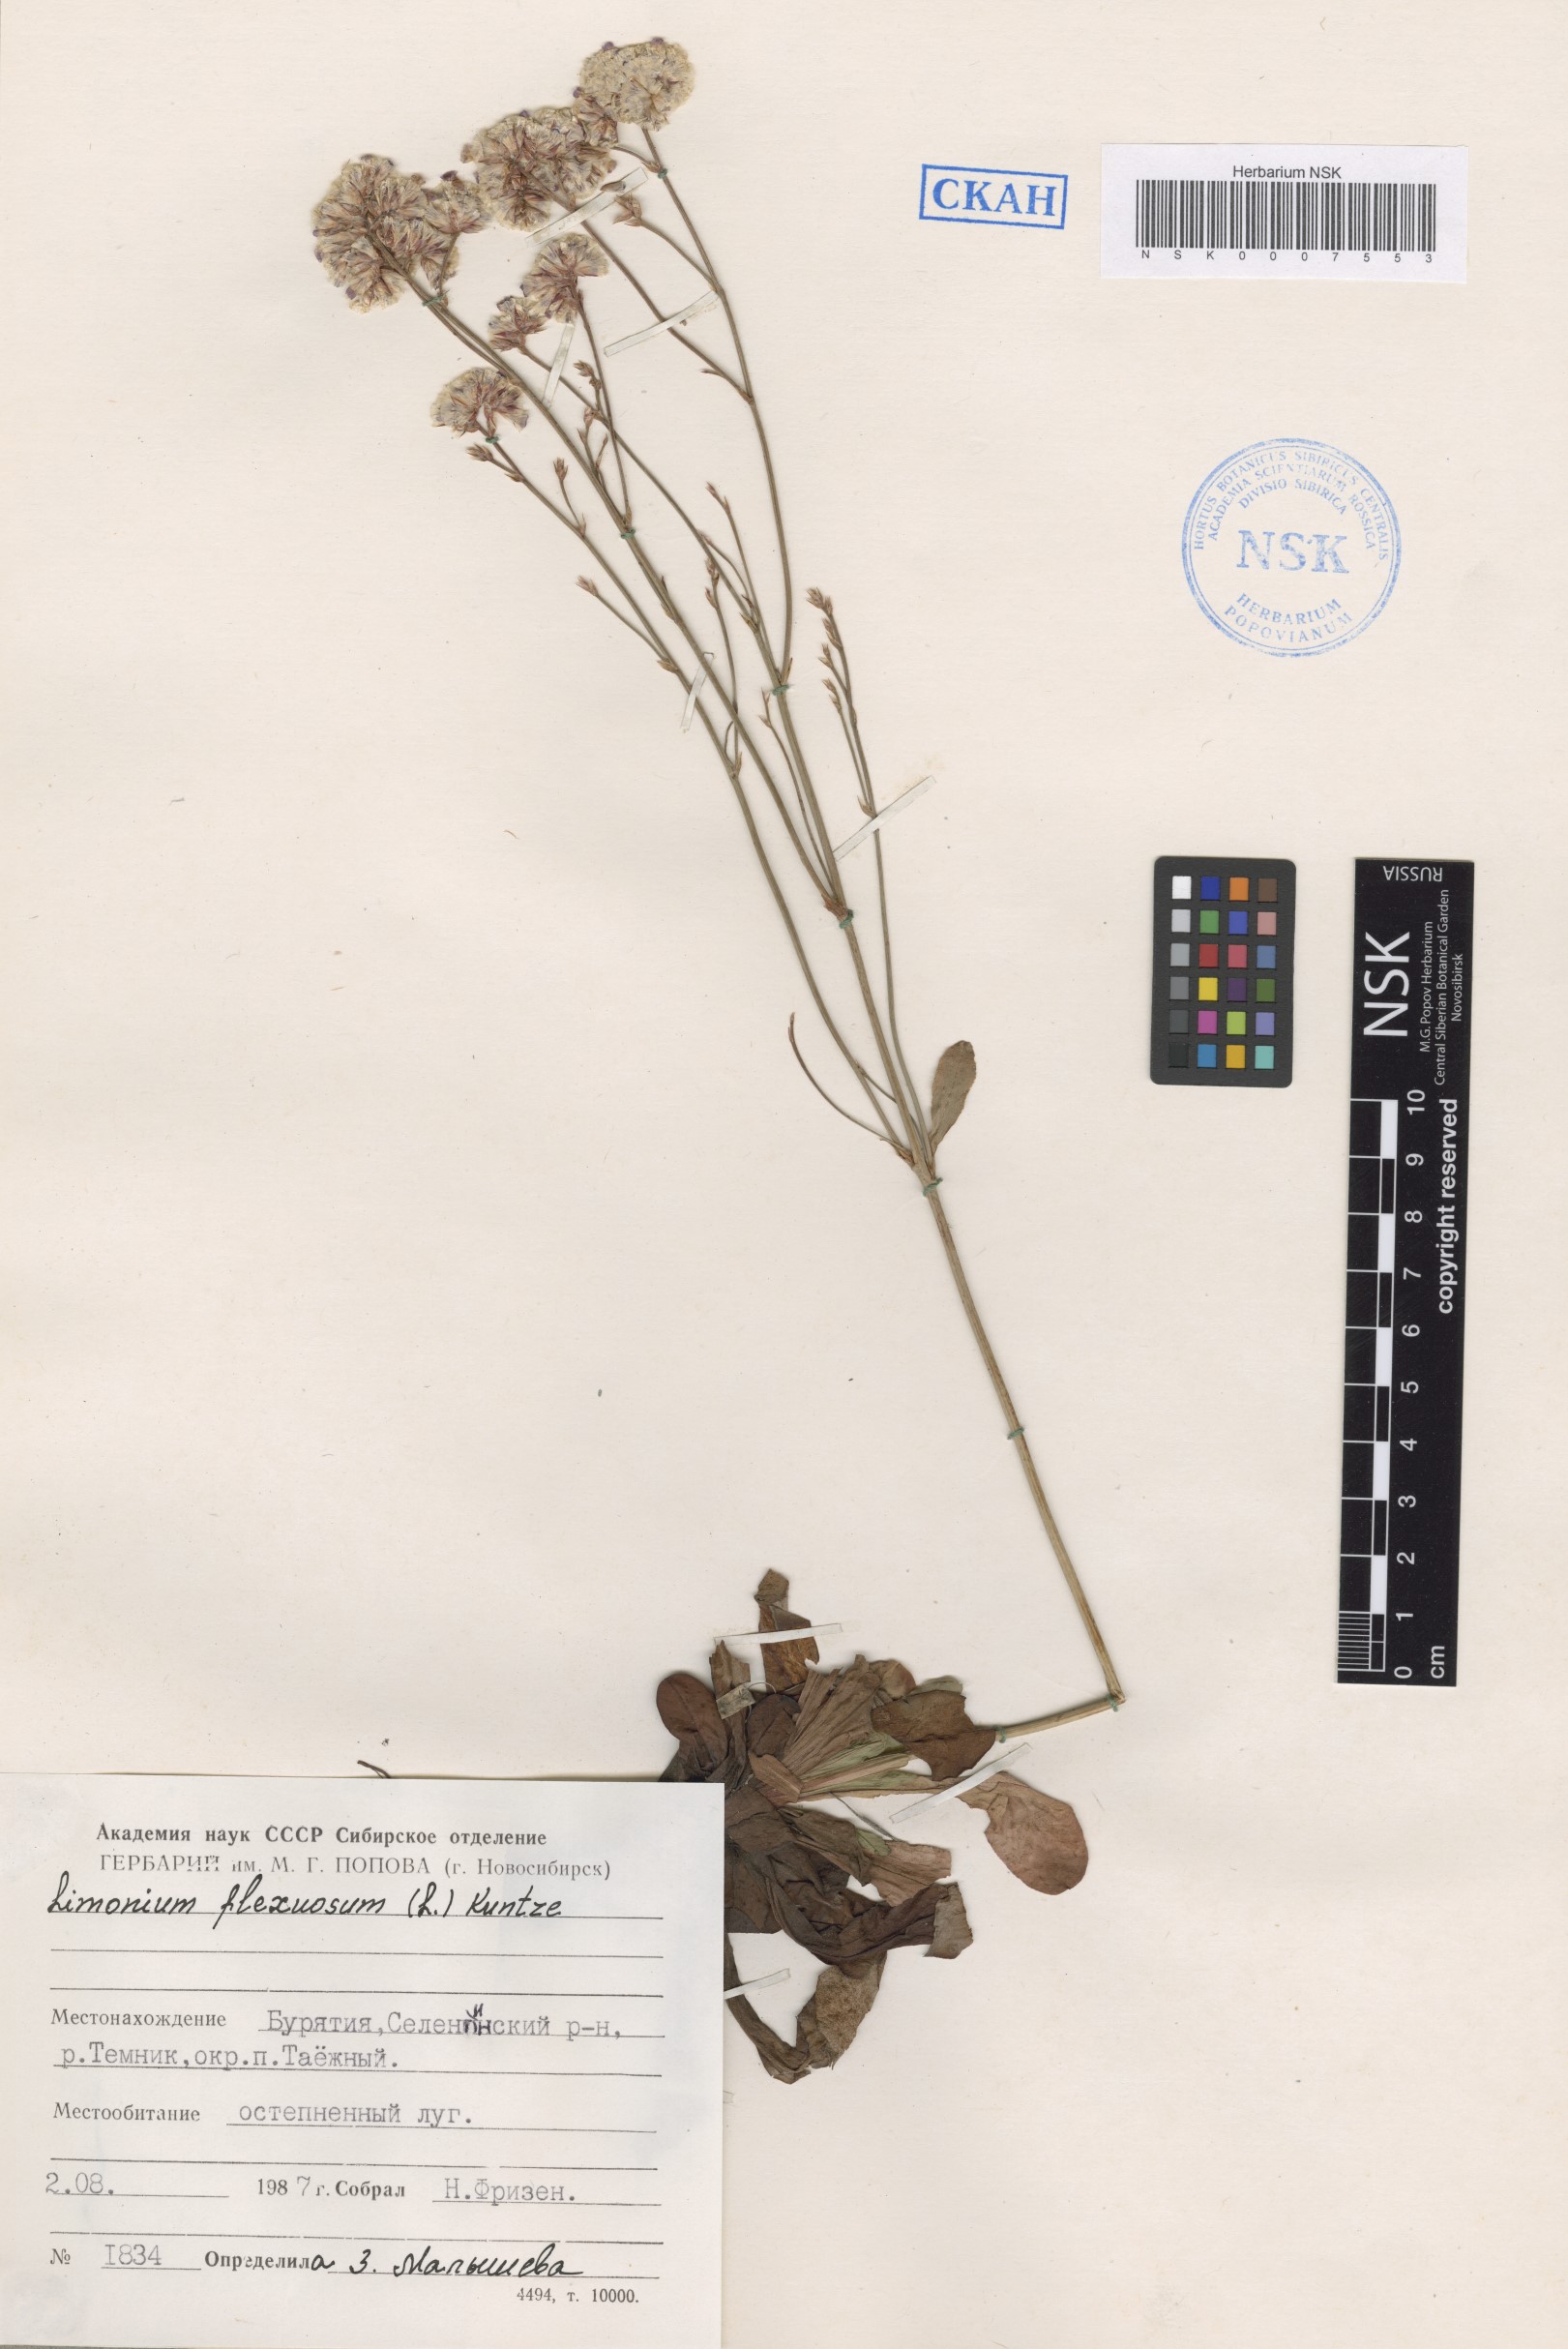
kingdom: Plantae
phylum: Tracheophyta
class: Magnoliopsida
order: Caryophyllales
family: Plumbaginaceae
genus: Limonium
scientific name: Limonium flexuosum
